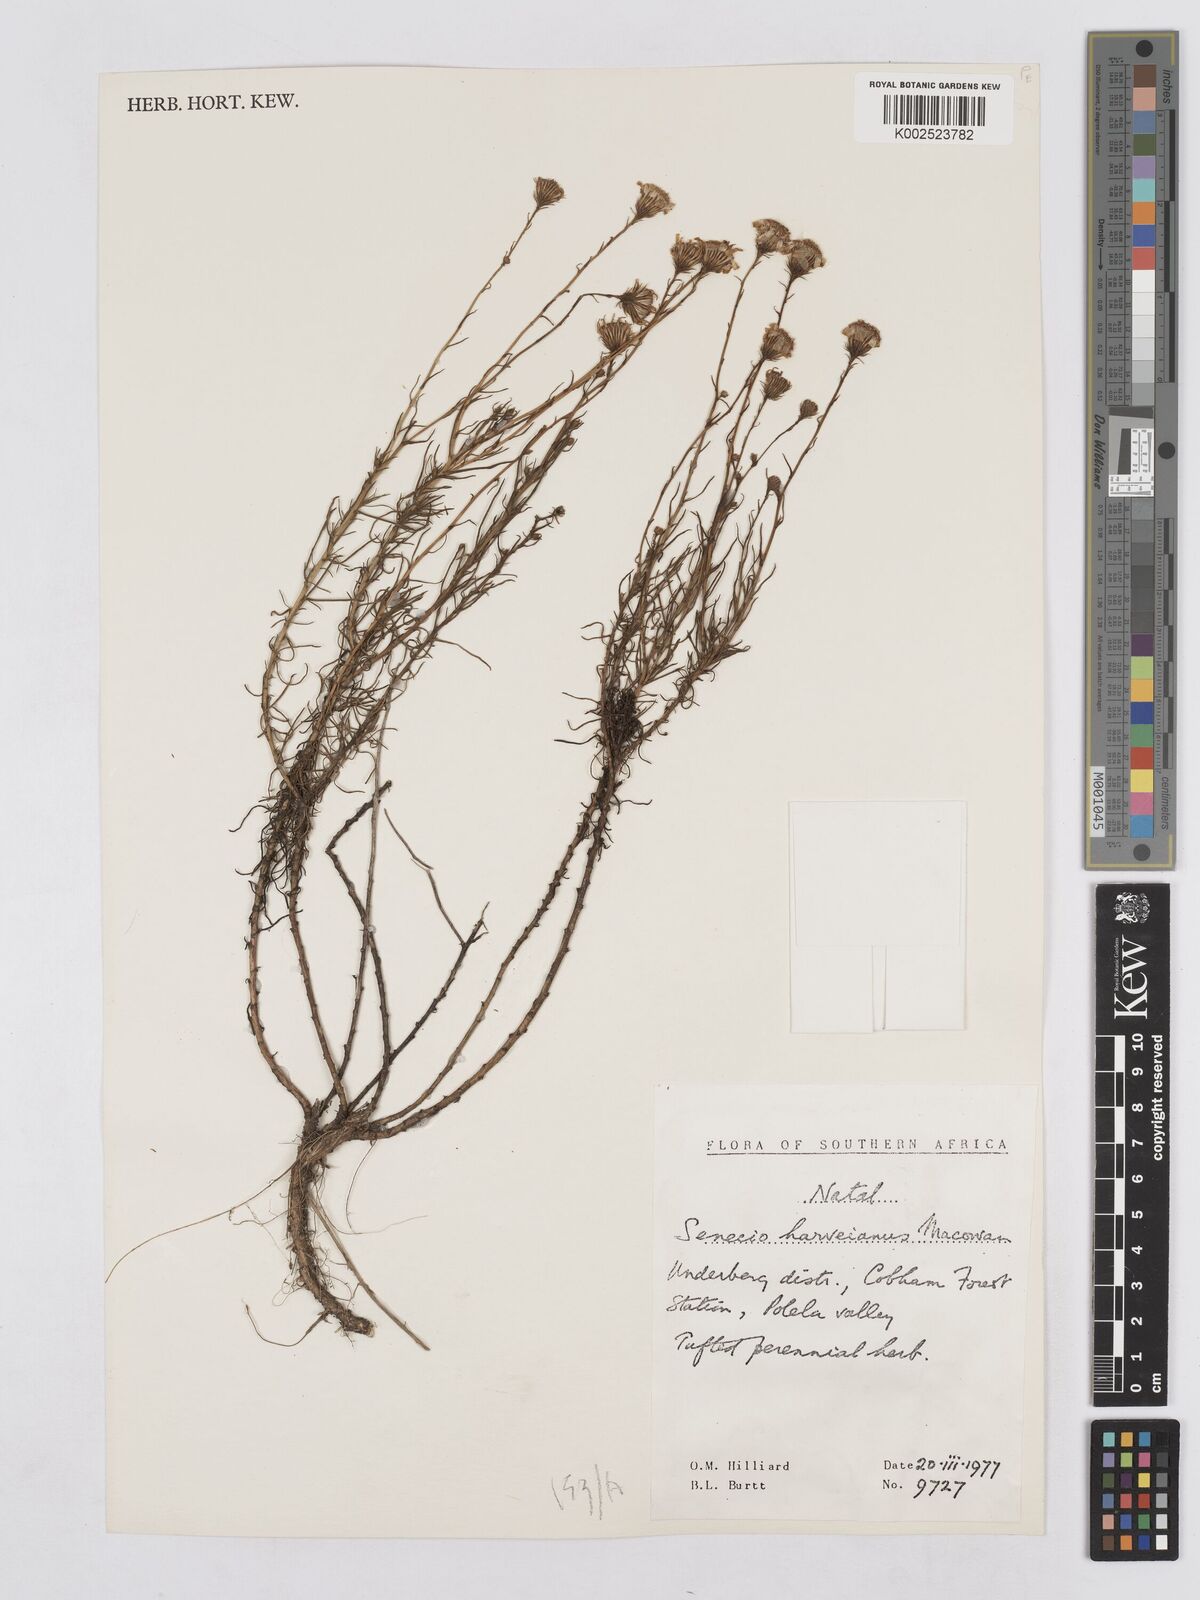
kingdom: Plantae
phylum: Tracheophyta
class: Magnoliopsida
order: Asterales
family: Asteraceae
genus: Senecio
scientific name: Senecio harveyanus
